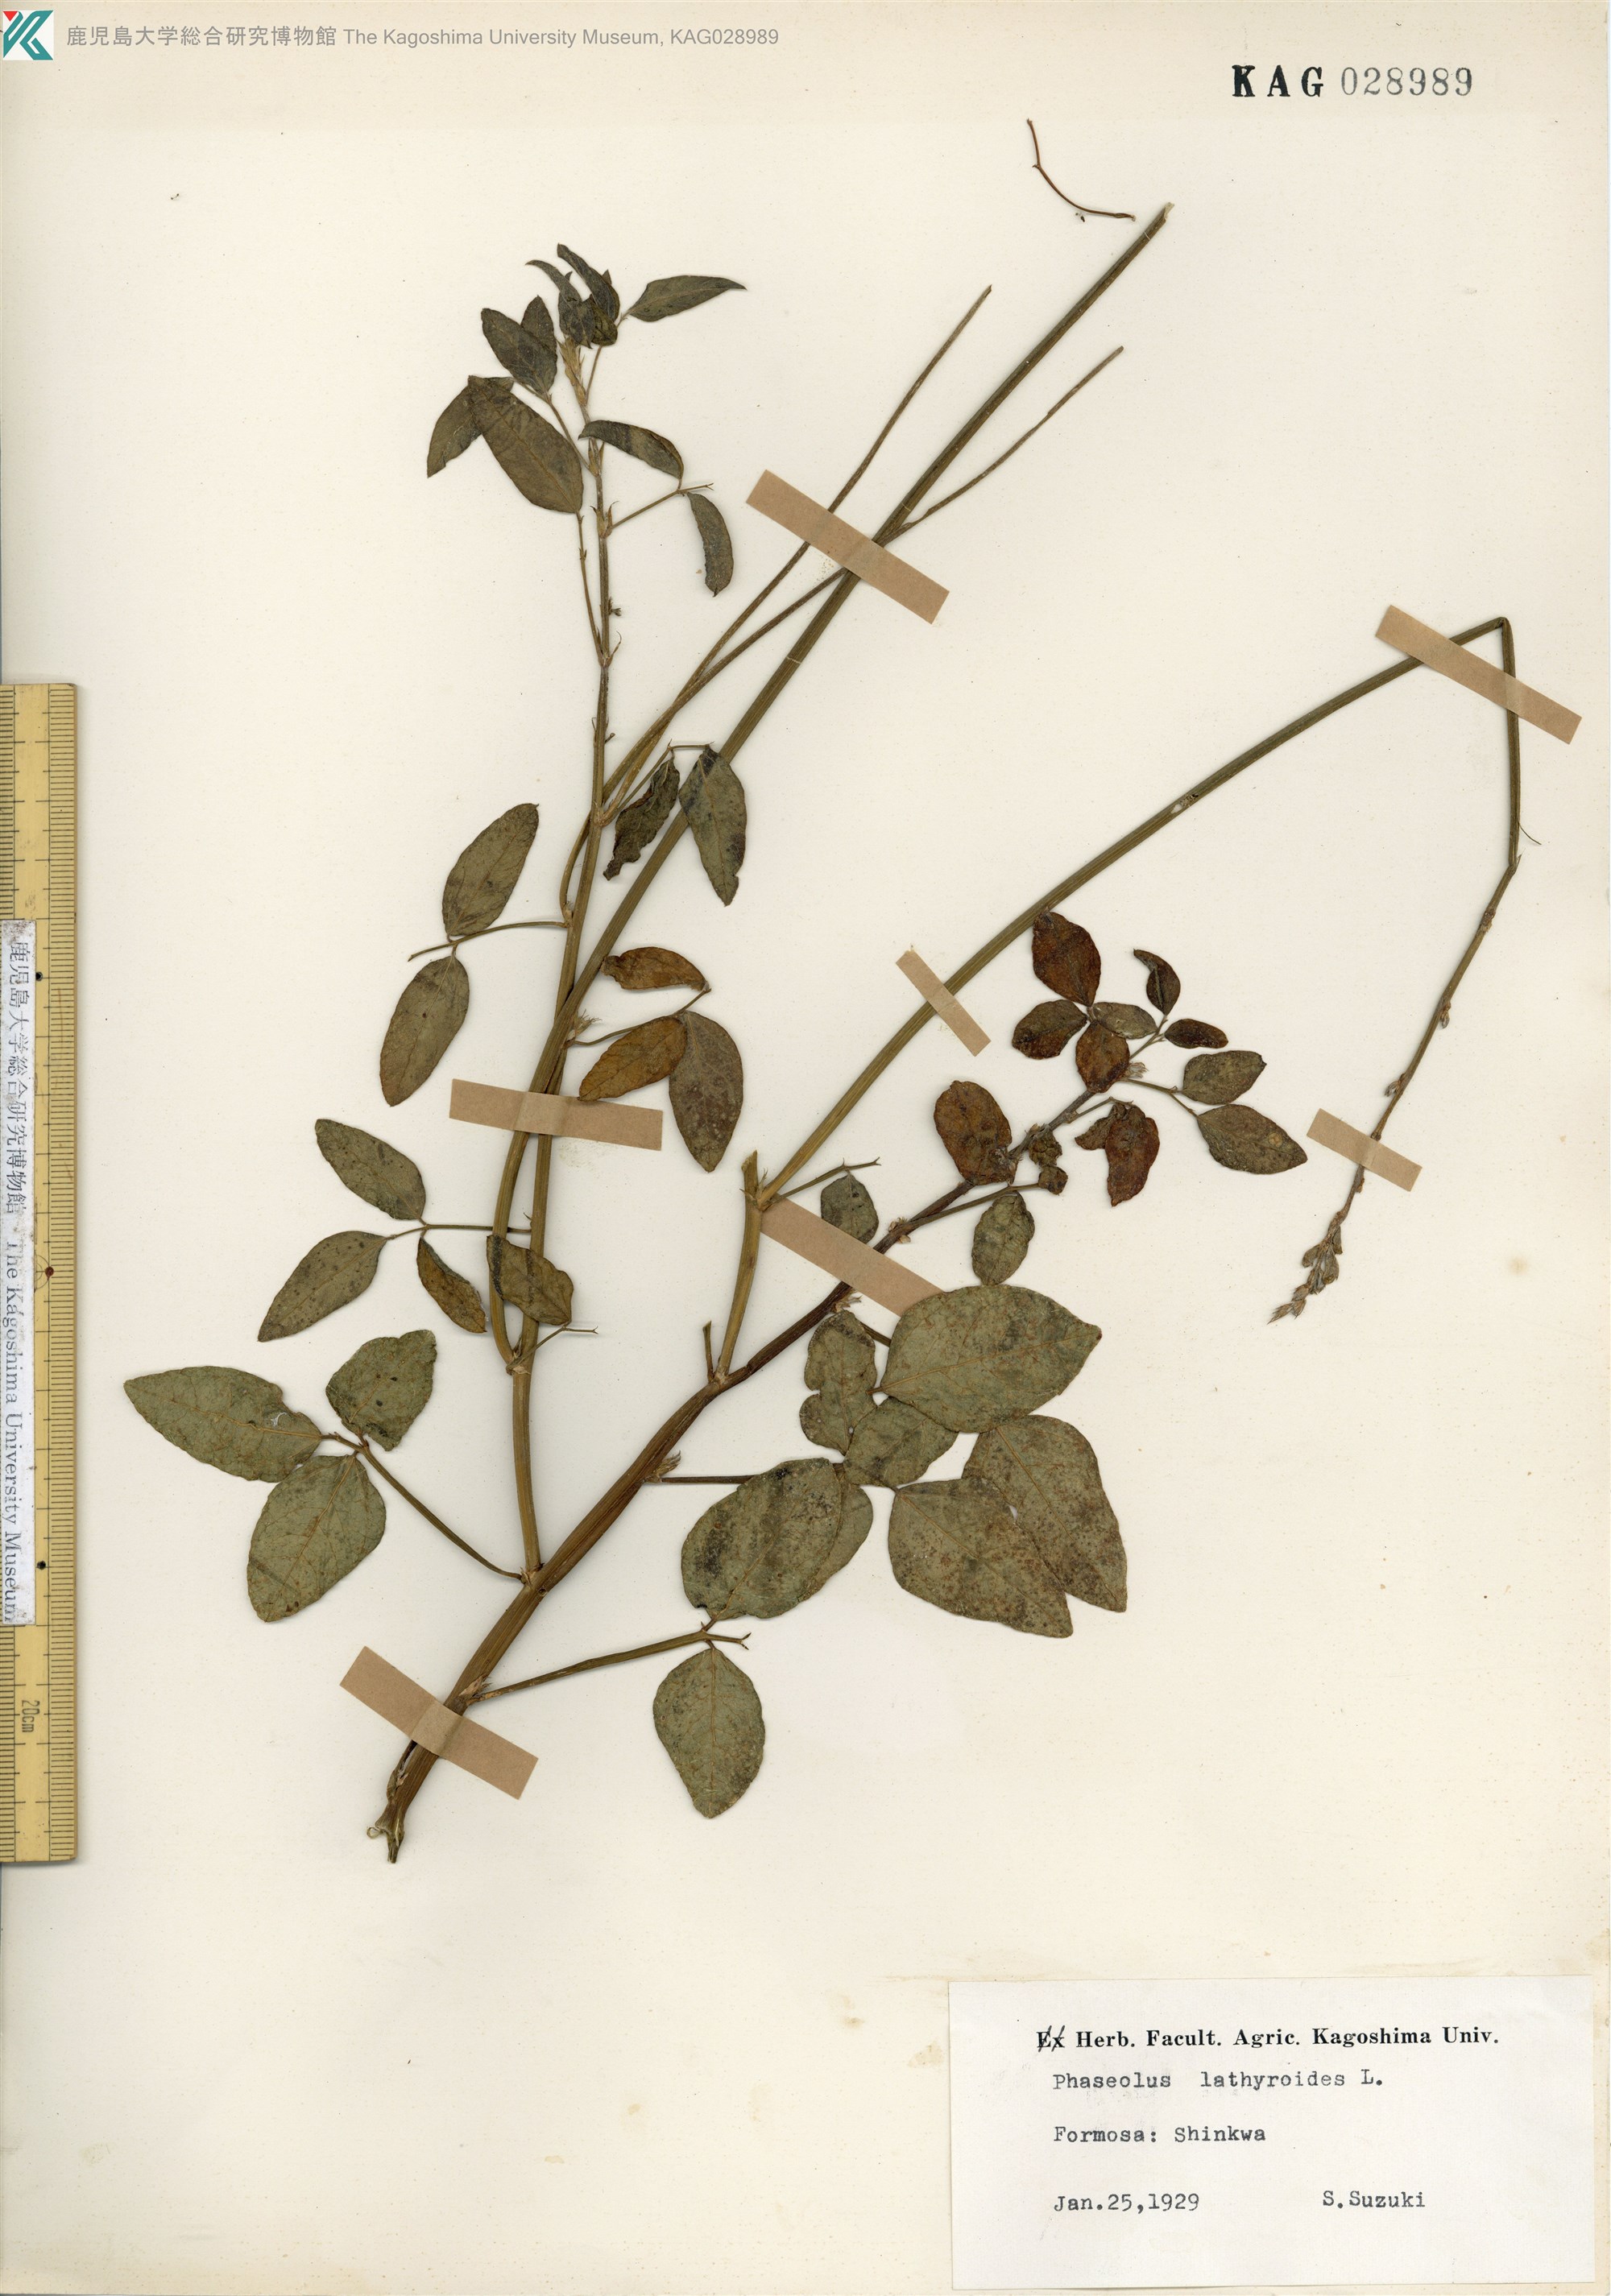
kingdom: Plantae
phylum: Tracheophyta
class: Magnoliopsida
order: Fabales
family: Fabaceae
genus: Macroptilium
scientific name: Macroptilium lathyroides
